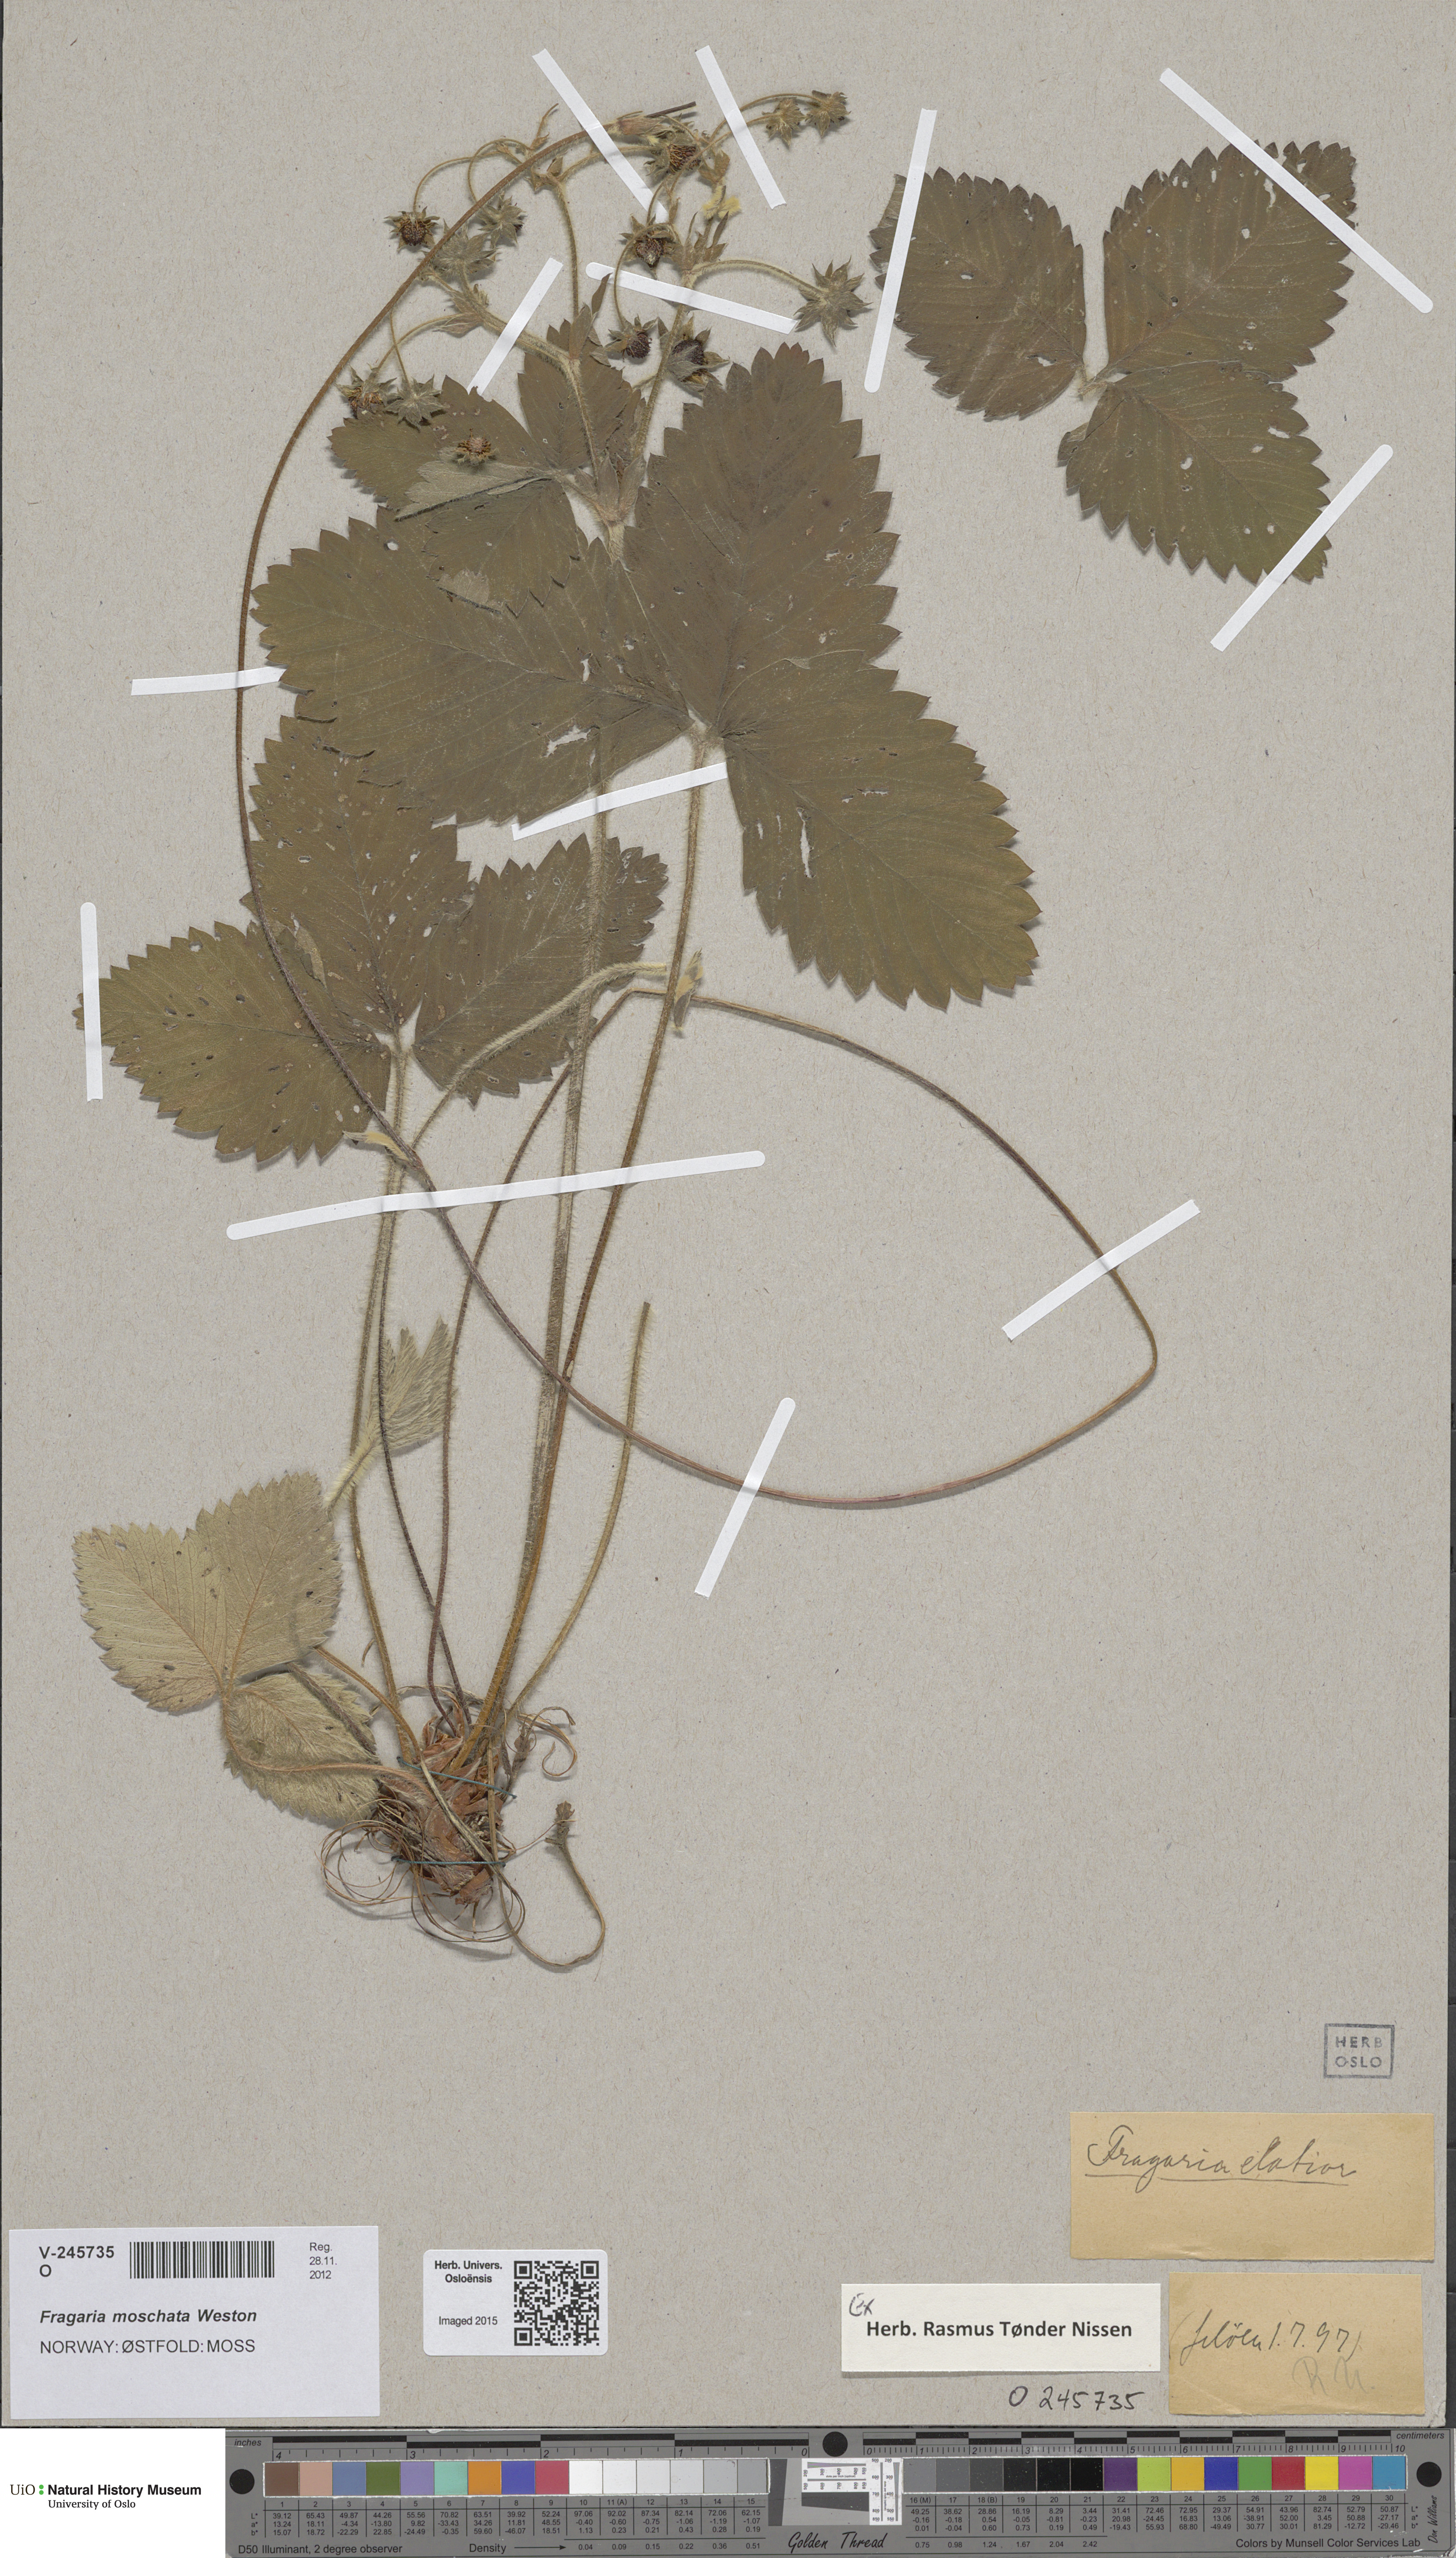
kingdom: Plantae
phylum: Tracheophyta
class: Magnoliopsida
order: Rosales
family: Rosaceae
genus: Fragaria
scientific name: Fragaria moschata
